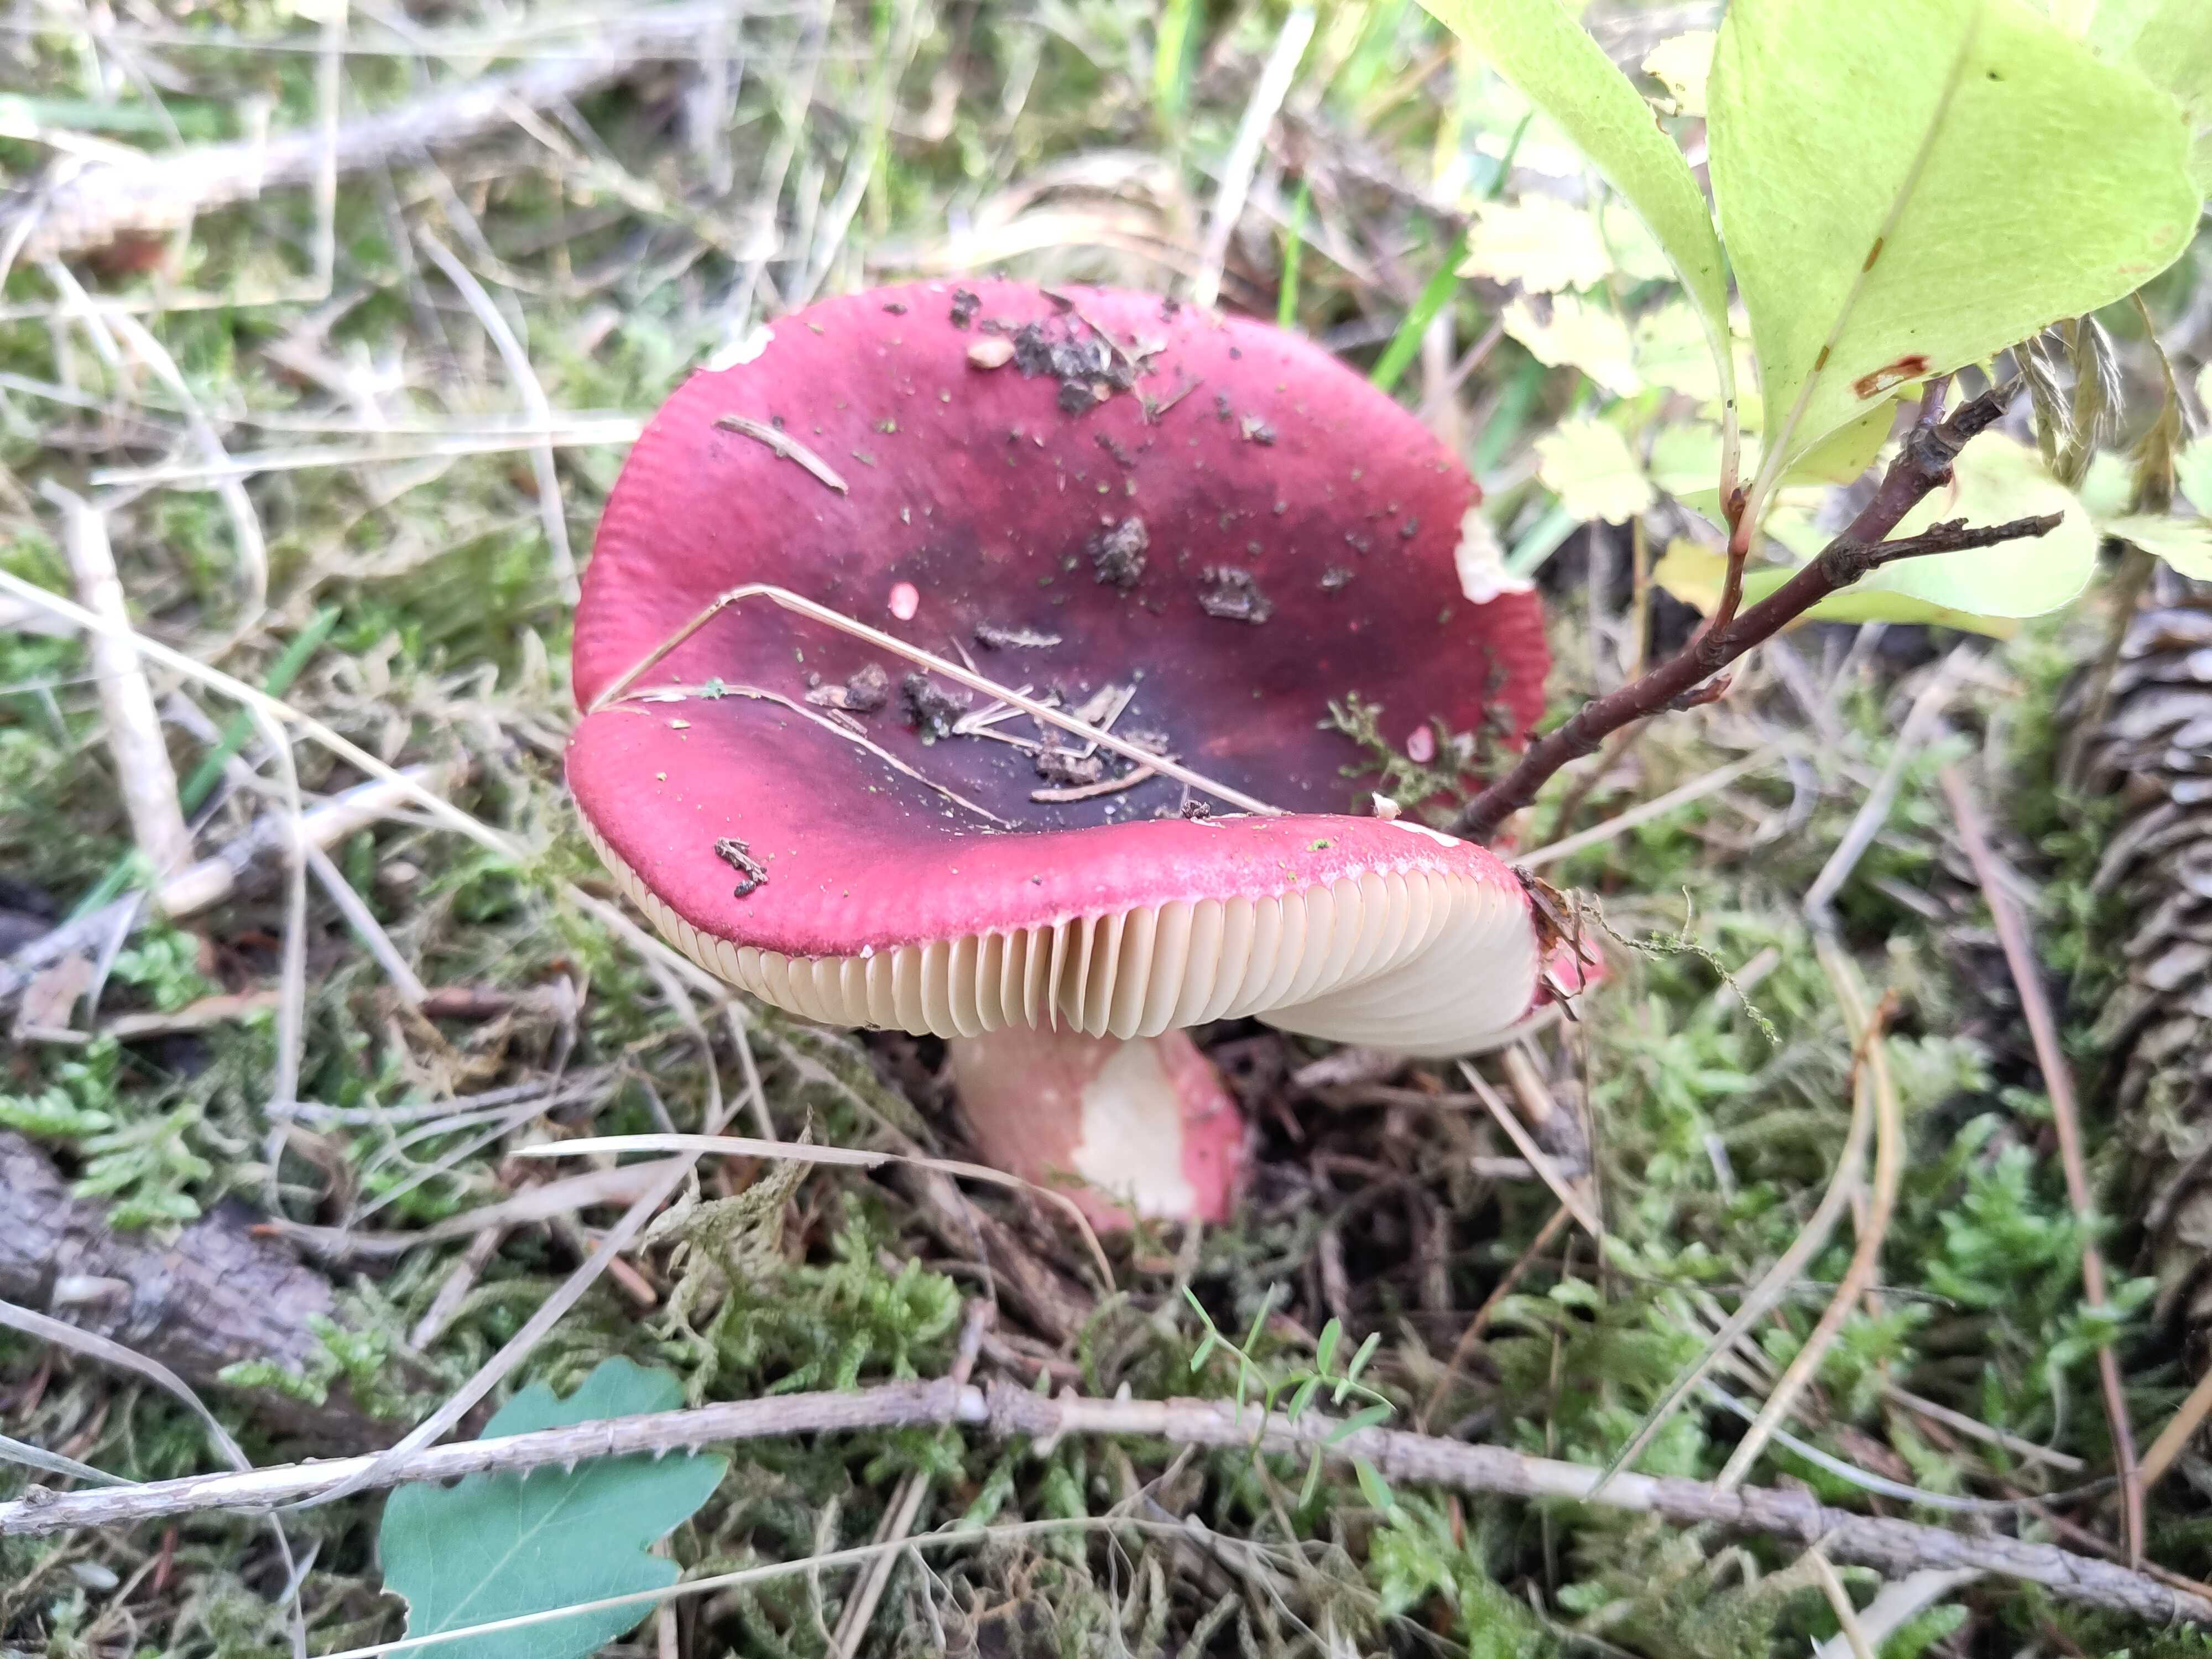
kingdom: Fungi
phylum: Basidiomycota
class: Agaricomycetes
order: Russulales
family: Russulaceae
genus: Russula
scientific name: Russula xerampelina
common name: hummer-skørhat
